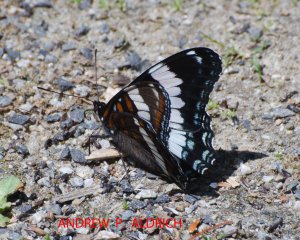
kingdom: Animalia
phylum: Arthropoda
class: Insecta
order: Lepidoptera
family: Nymphalidae
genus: Limenitis
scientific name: Limenitis arthemis
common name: Red-spotted Admiral
